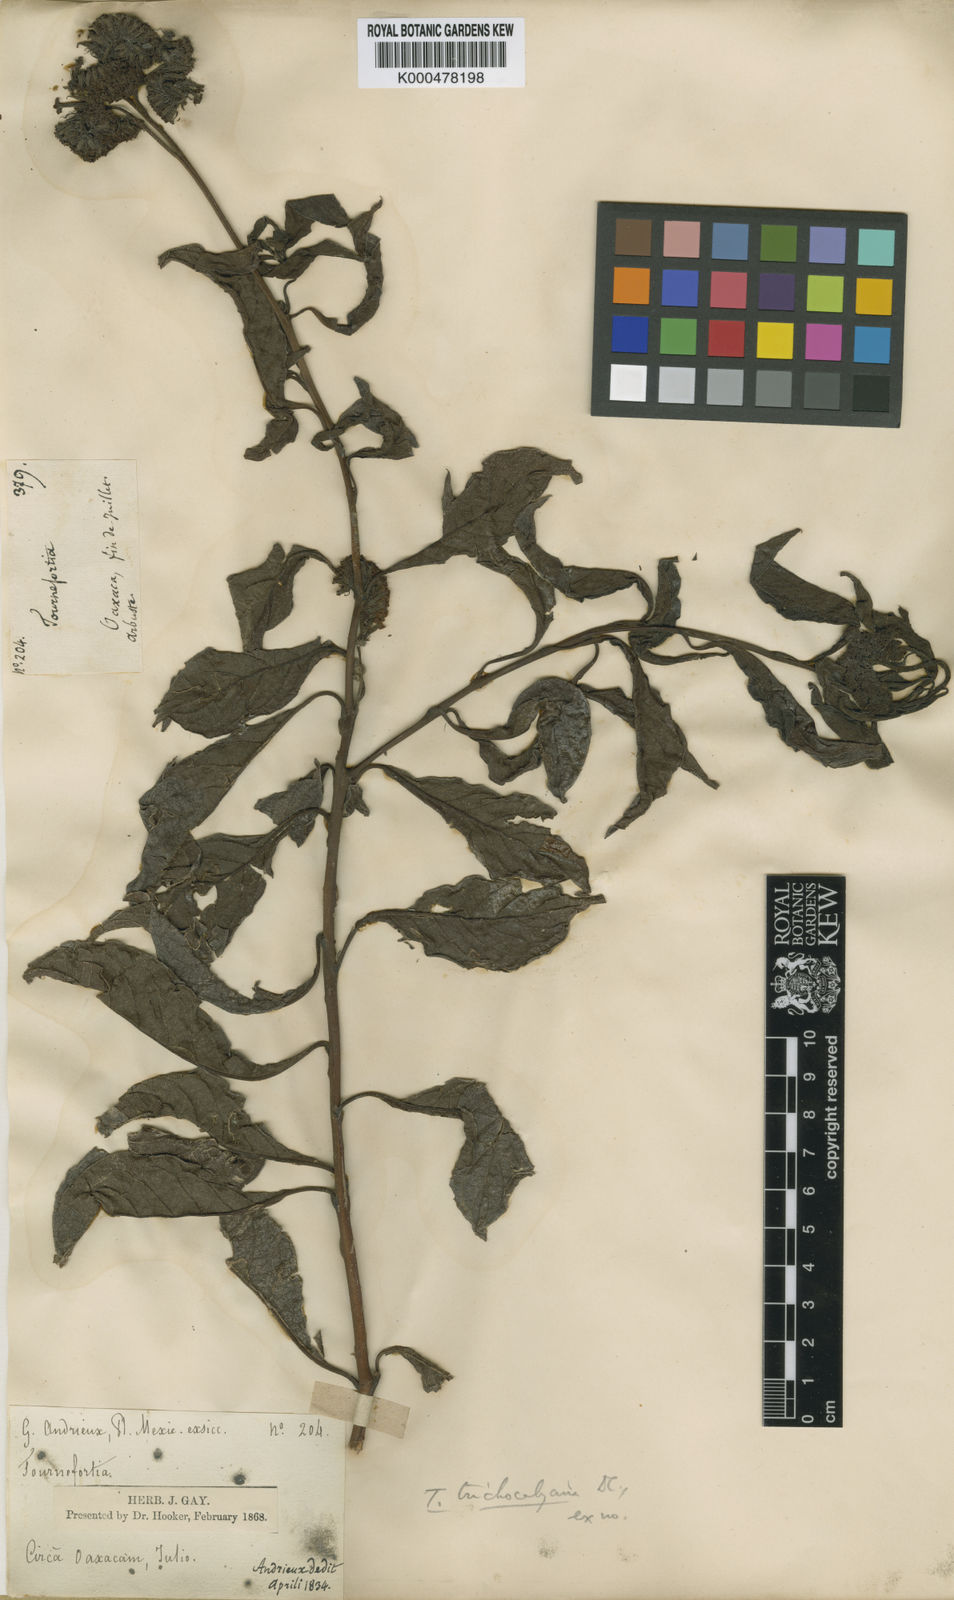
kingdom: Plantae
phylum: Tracheophyta
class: Magnoliopsida
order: Boraginales
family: Heliotropiaceae
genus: Tournefortia
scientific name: Tournefortia mutabilis
